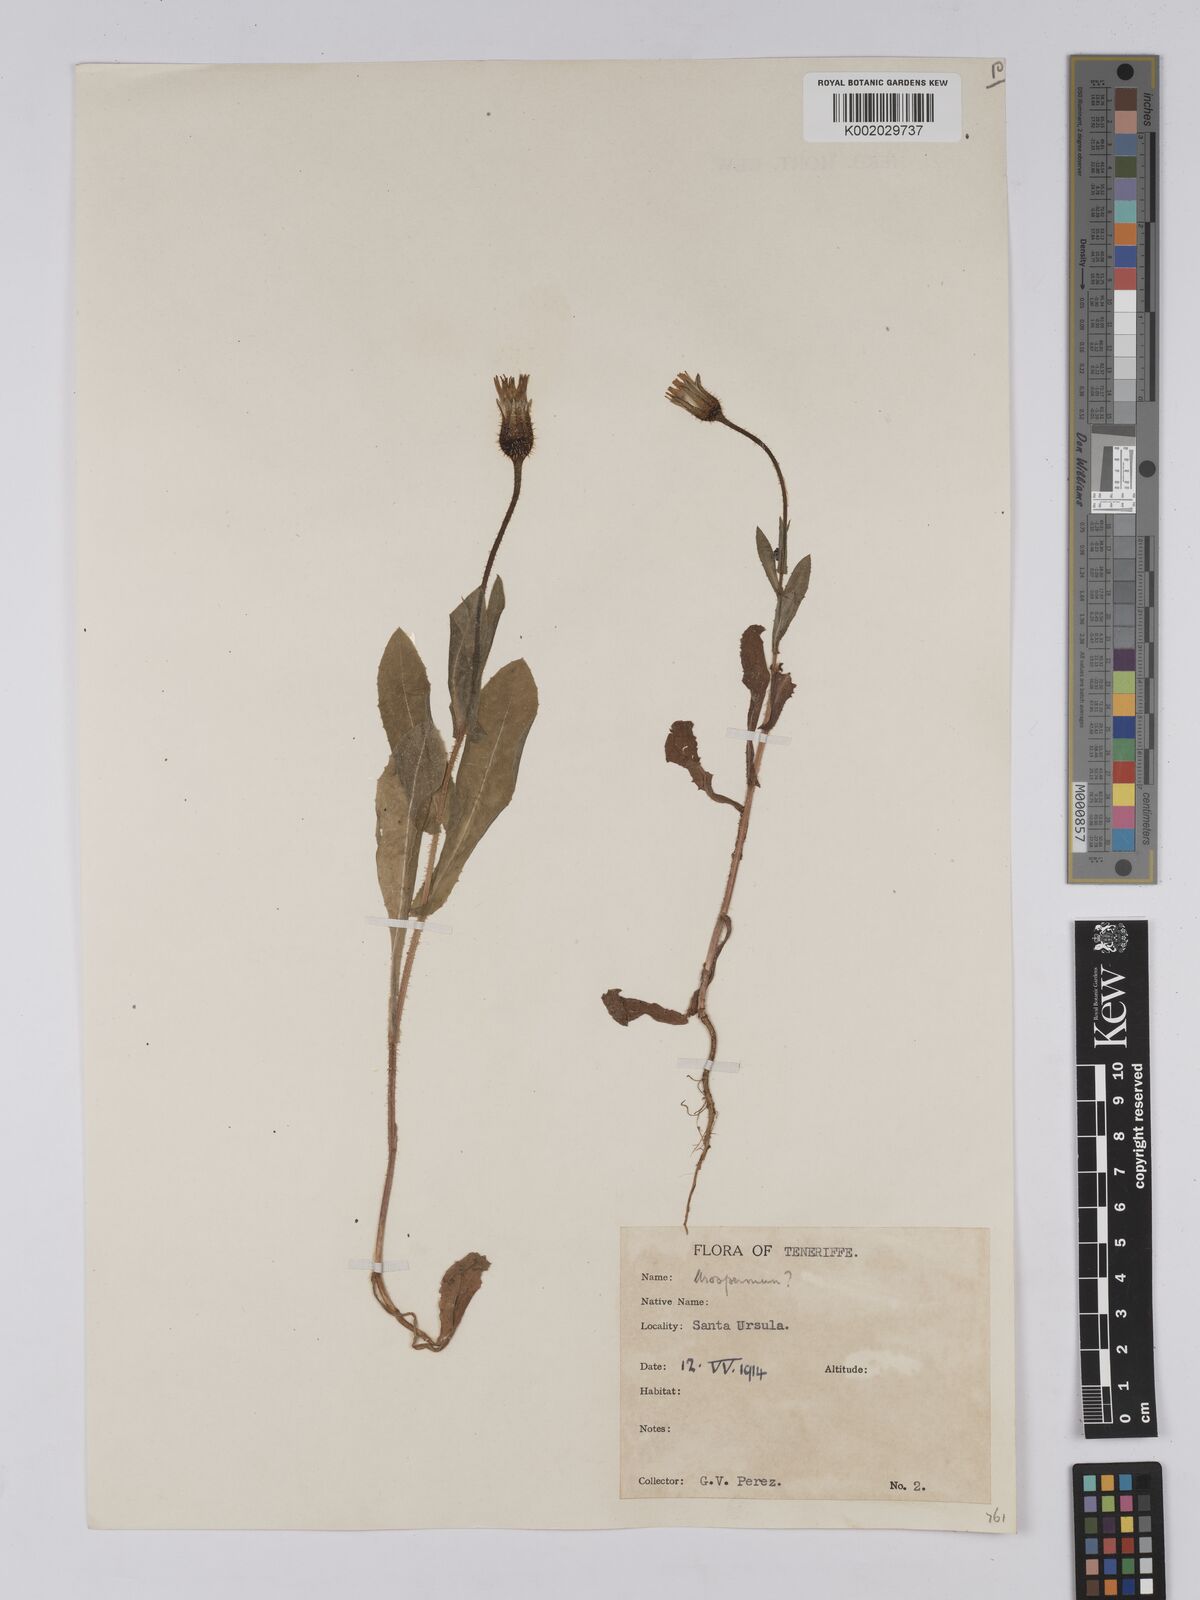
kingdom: Plantae
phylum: Tracheophyta
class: Magnoliopsida
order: Asterales
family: Asteraceae
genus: Urospermum
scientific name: Urospermum picroides
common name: False hawkbit
